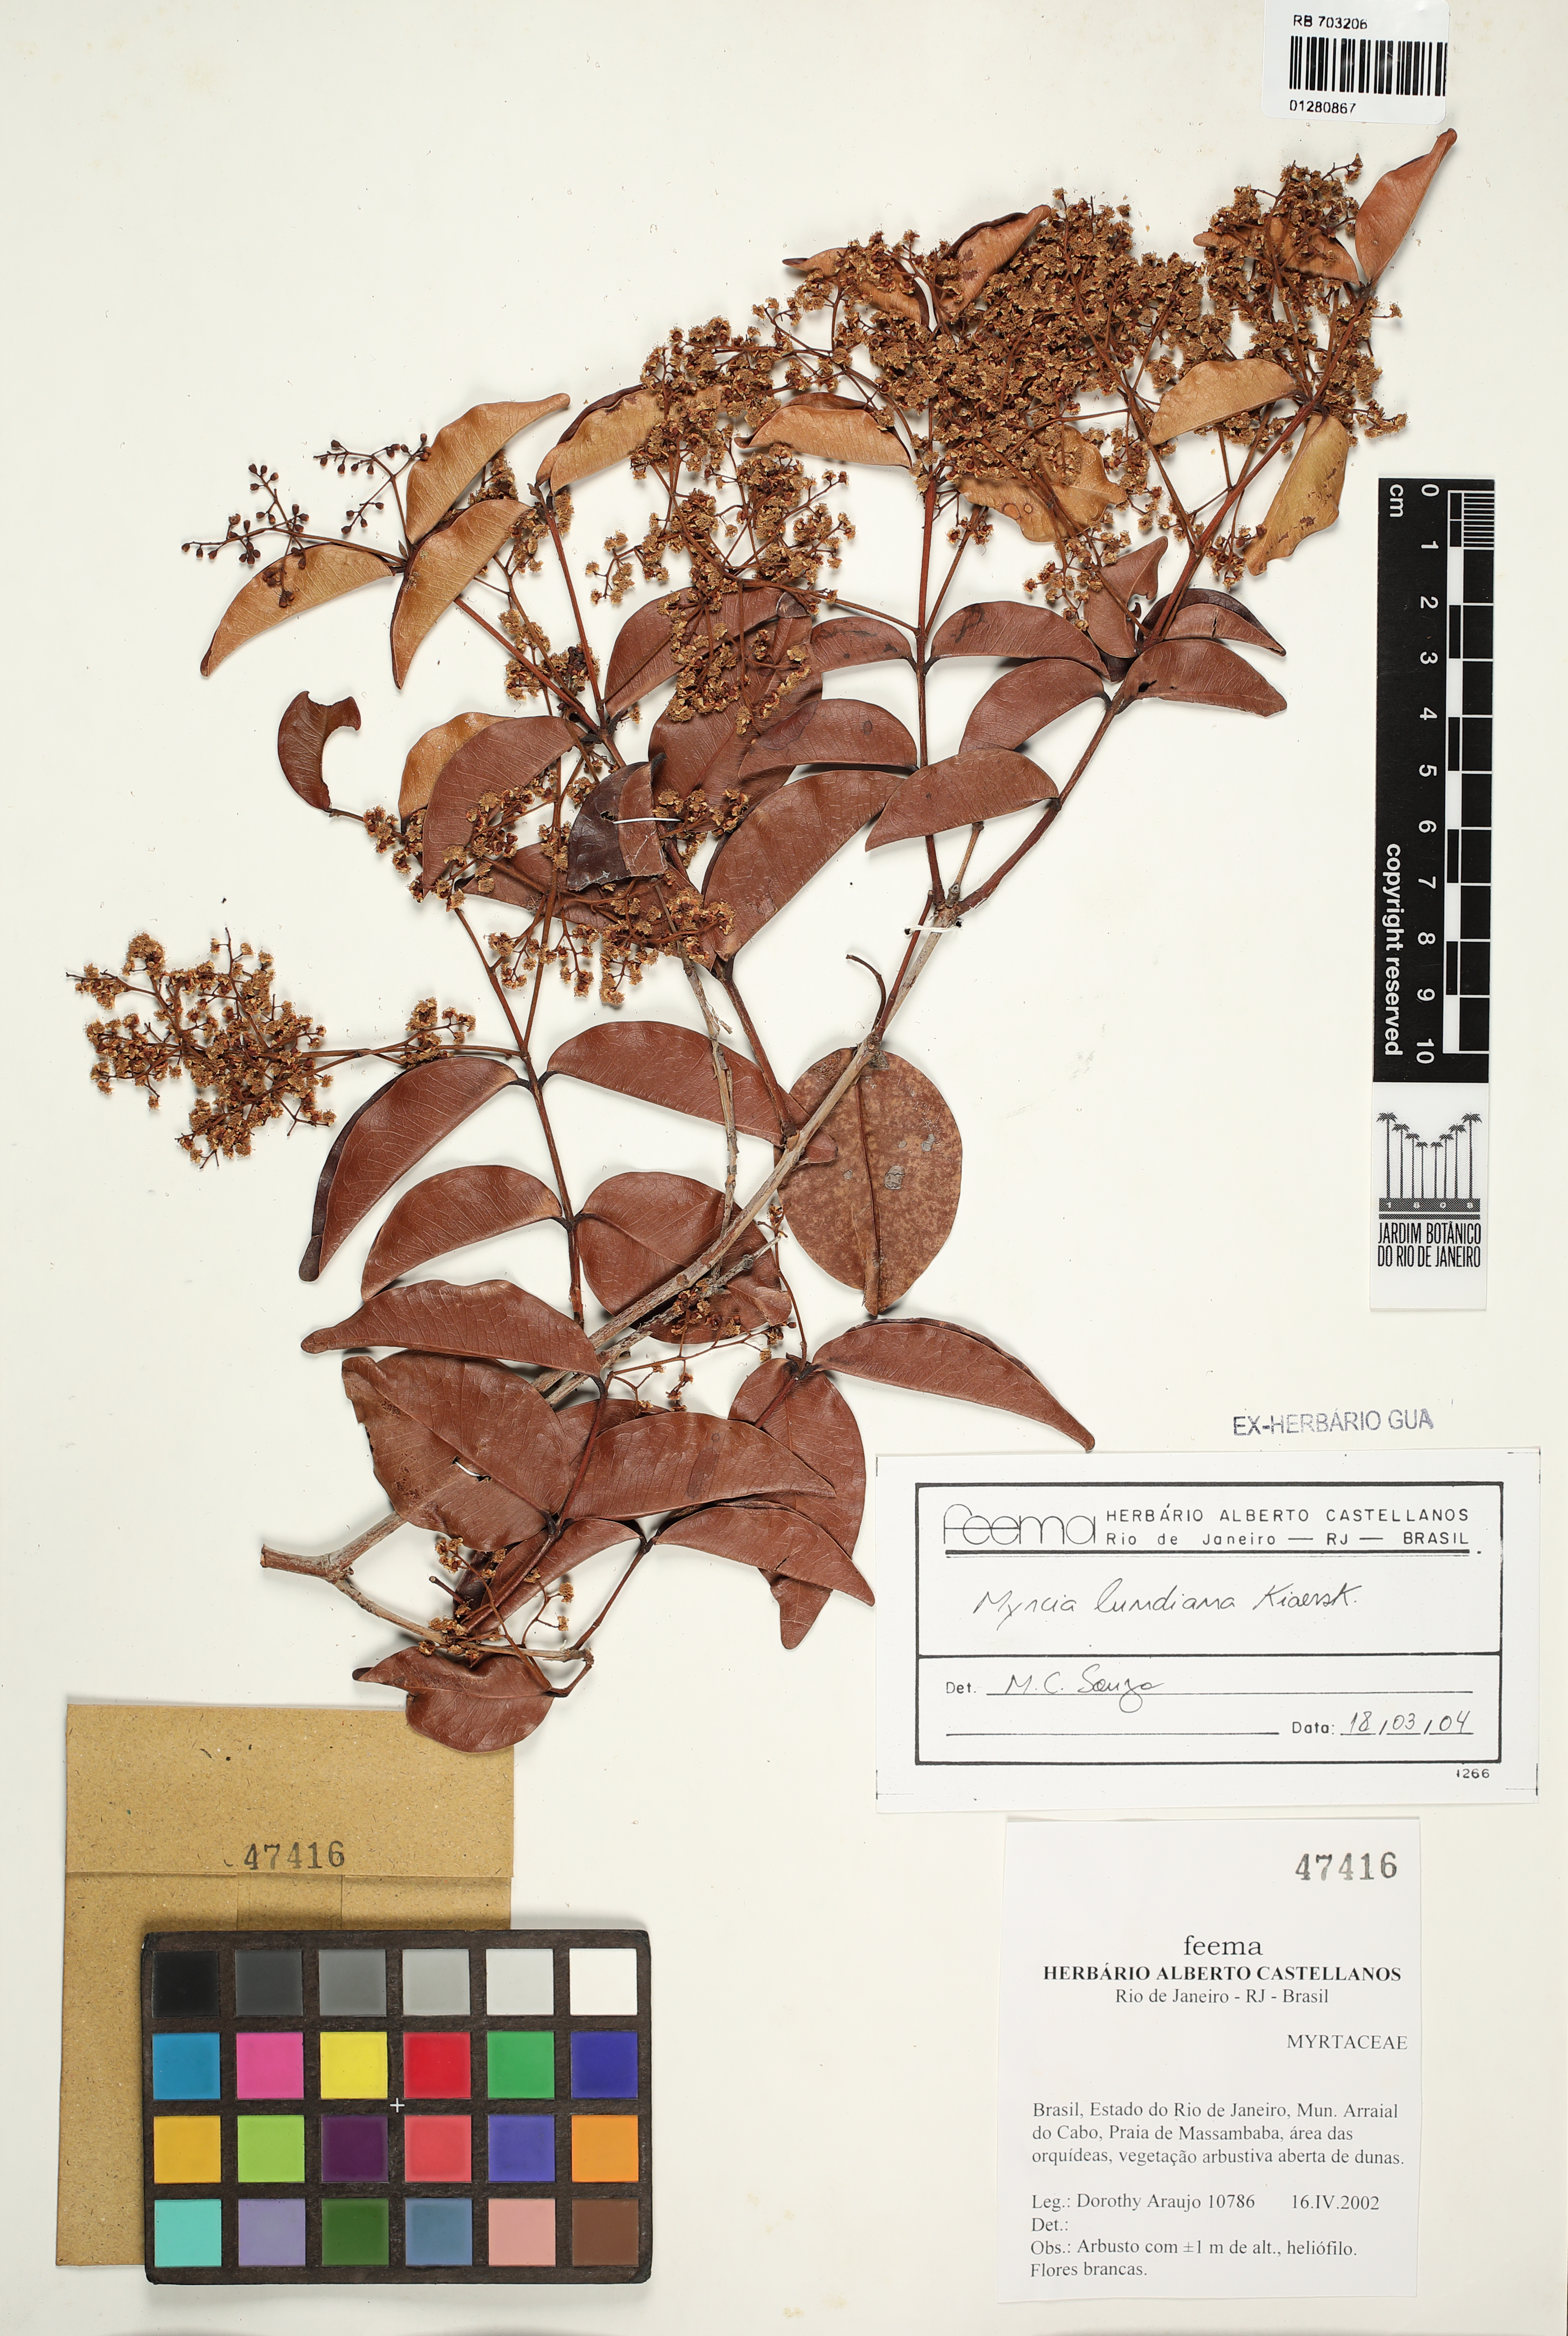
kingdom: Plantae
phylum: Tracheophyta
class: Magnoliopsida
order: Myrtales
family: Myrtaceae
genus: Myrcia
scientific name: Myrcia lundiana
